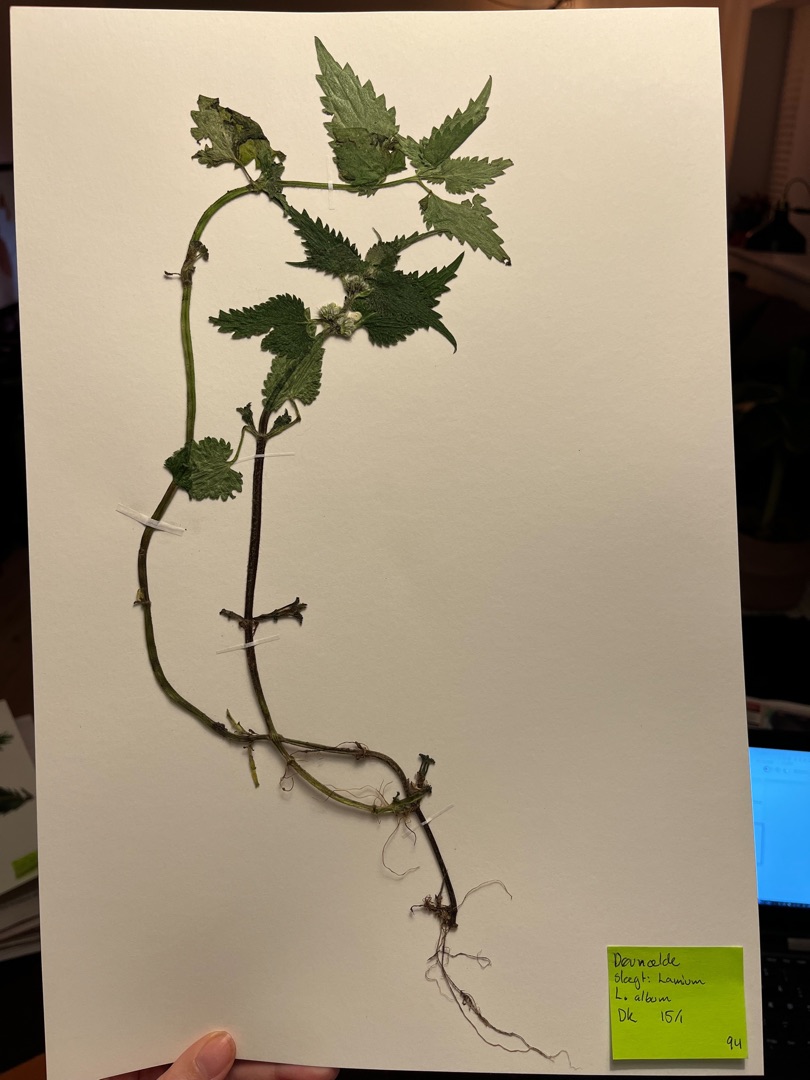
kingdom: Plantae
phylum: Tracheophyta
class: Magnoliopsida
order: Lamiales
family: Lamiaceae
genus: Lamium
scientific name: Lamium album
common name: Døvnælde
